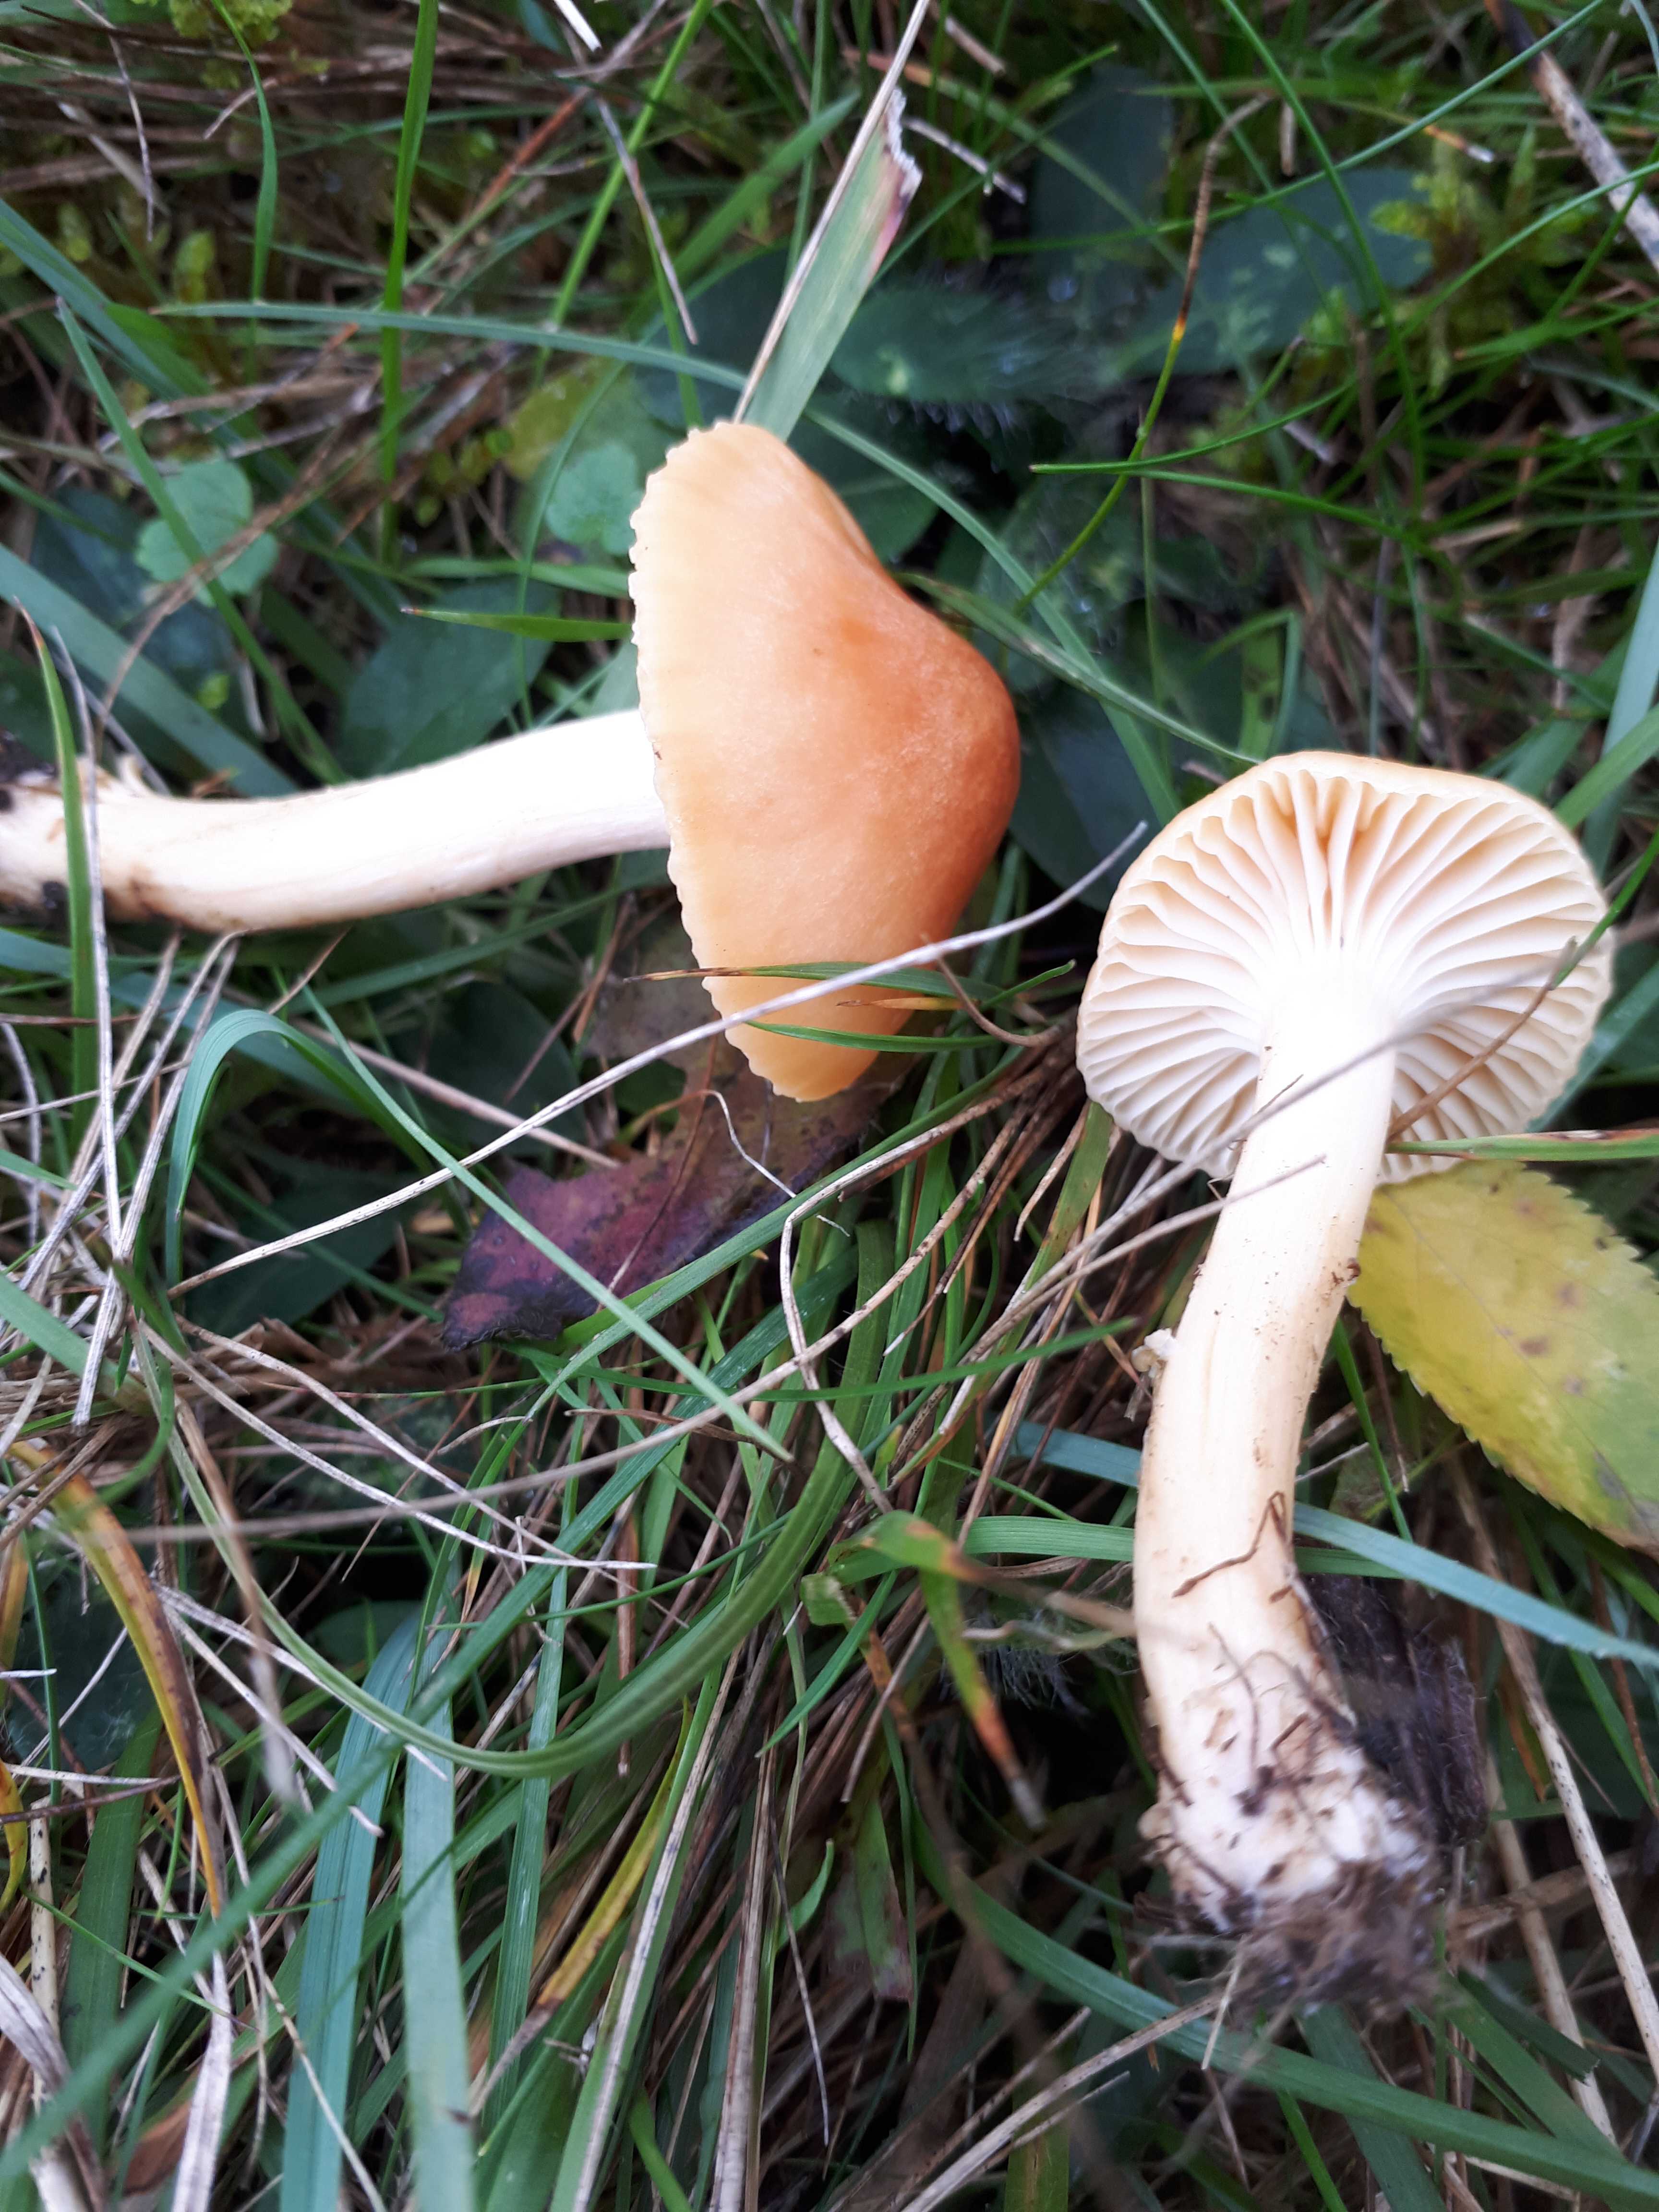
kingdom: Fungi
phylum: Basidiomycota
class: Agaricomycetes
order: Agaricales
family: Hygrophoraceae
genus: Cuphophyllus
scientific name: Cuphophyllus pratensis
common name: eng-vokshat
